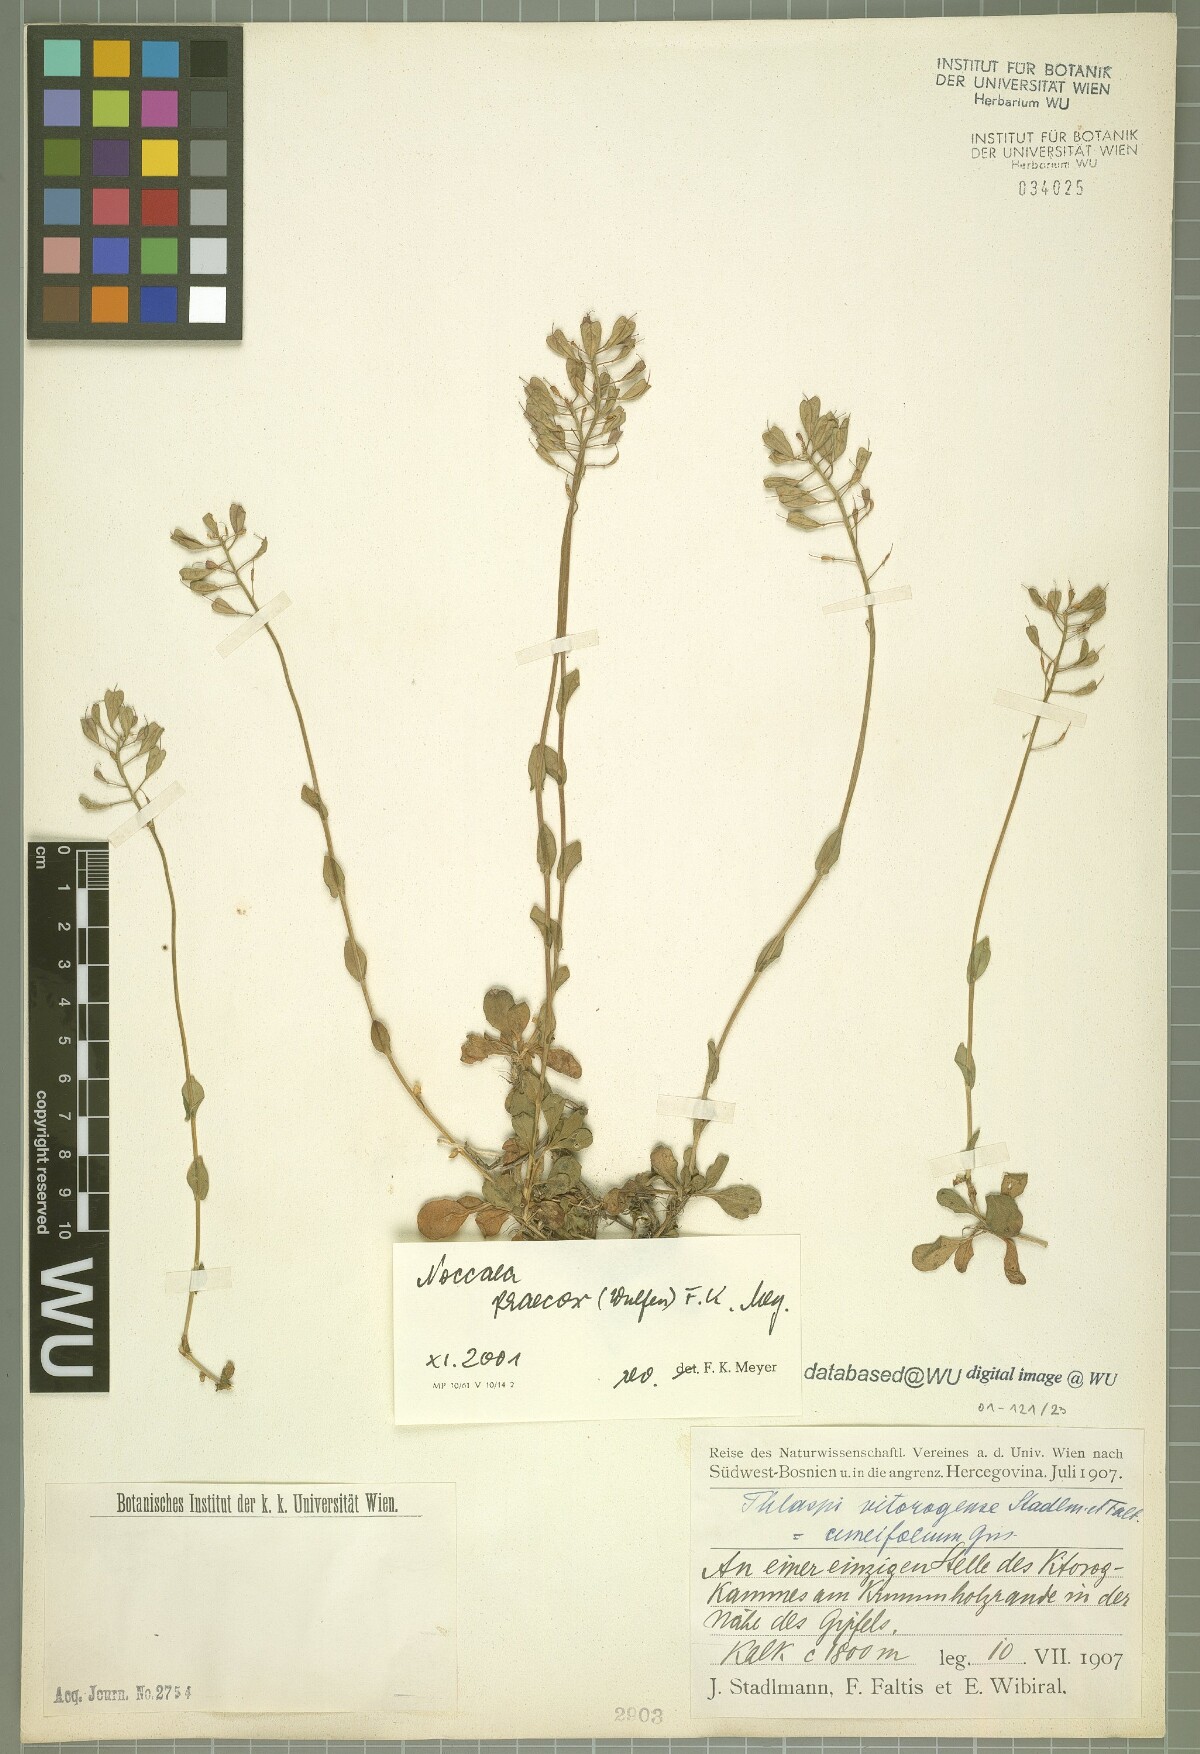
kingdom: Plantae
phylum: Tracheophyta
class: Magnoliopsida
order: Brassicales
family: Brassicaceae
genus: Noccaea
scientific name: Noccaea praecox
